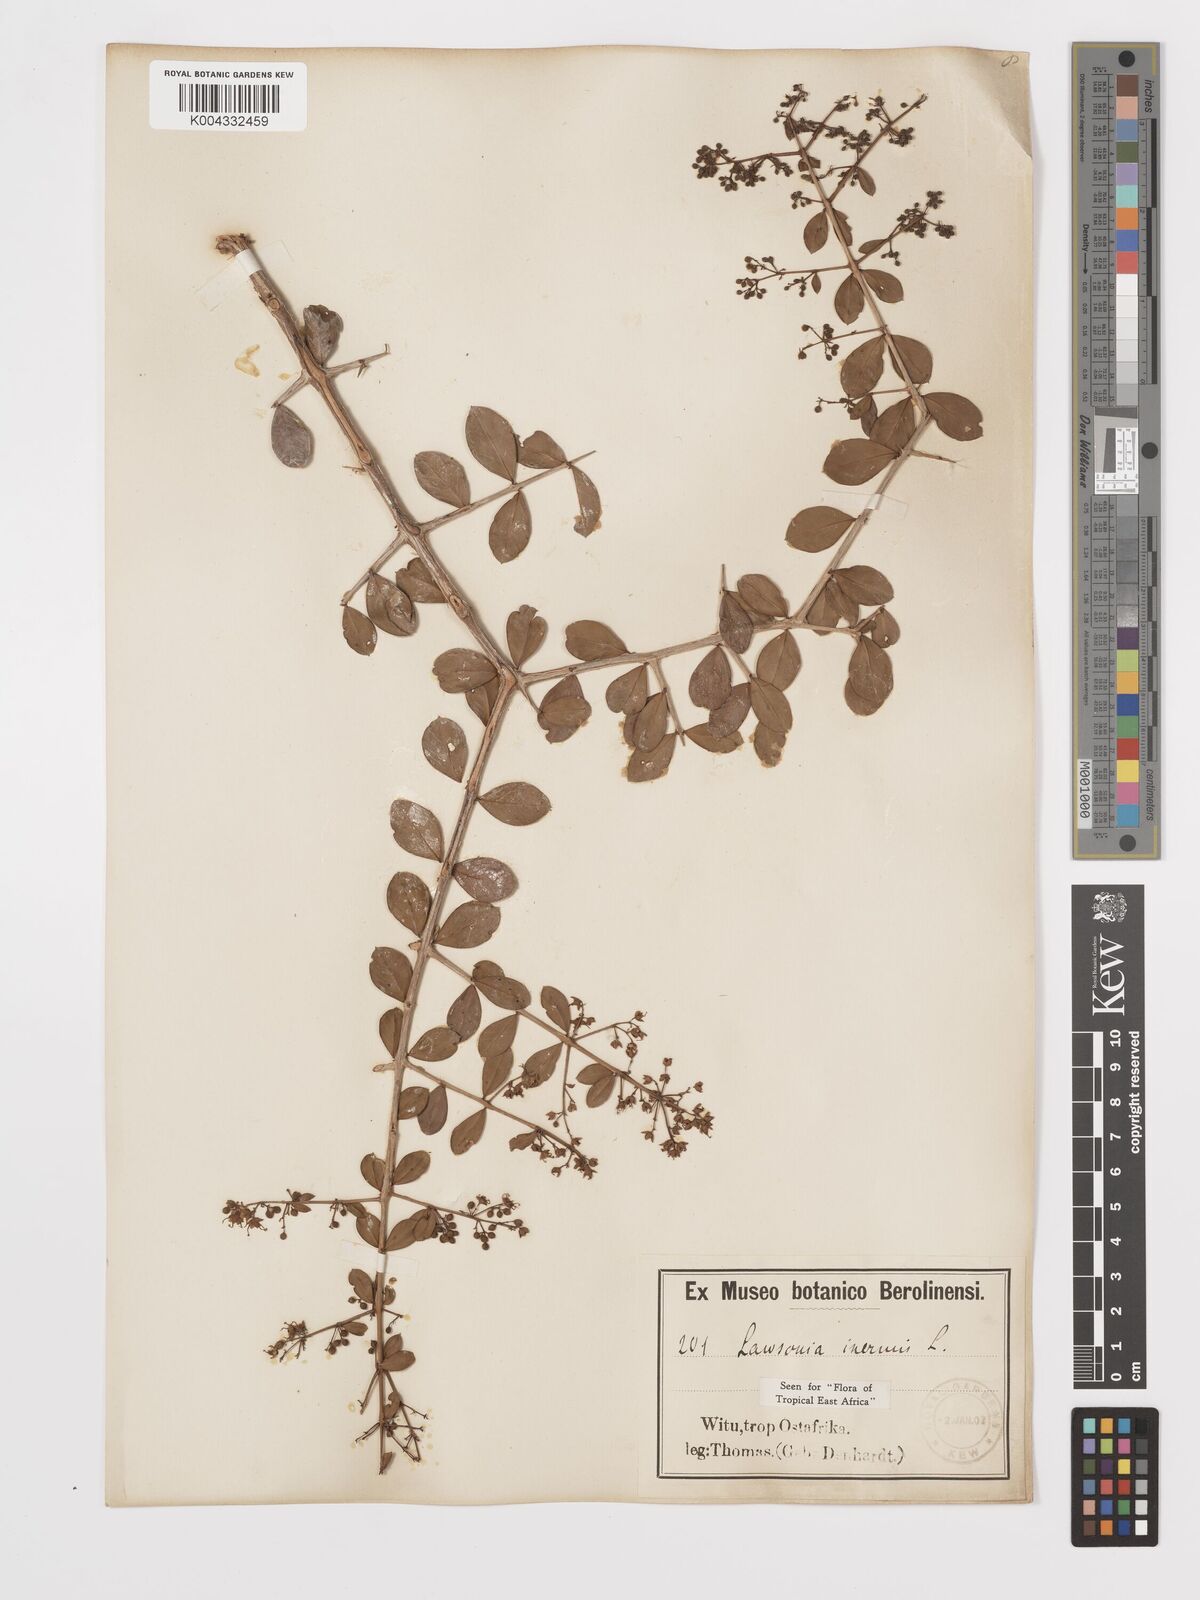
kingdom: Plantae
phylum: Tracheophyta
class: Magnoliopsida
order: Myrtales
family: Lythraceae
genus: Lawsonia
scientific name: Lawsonia inermis
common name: Henna
